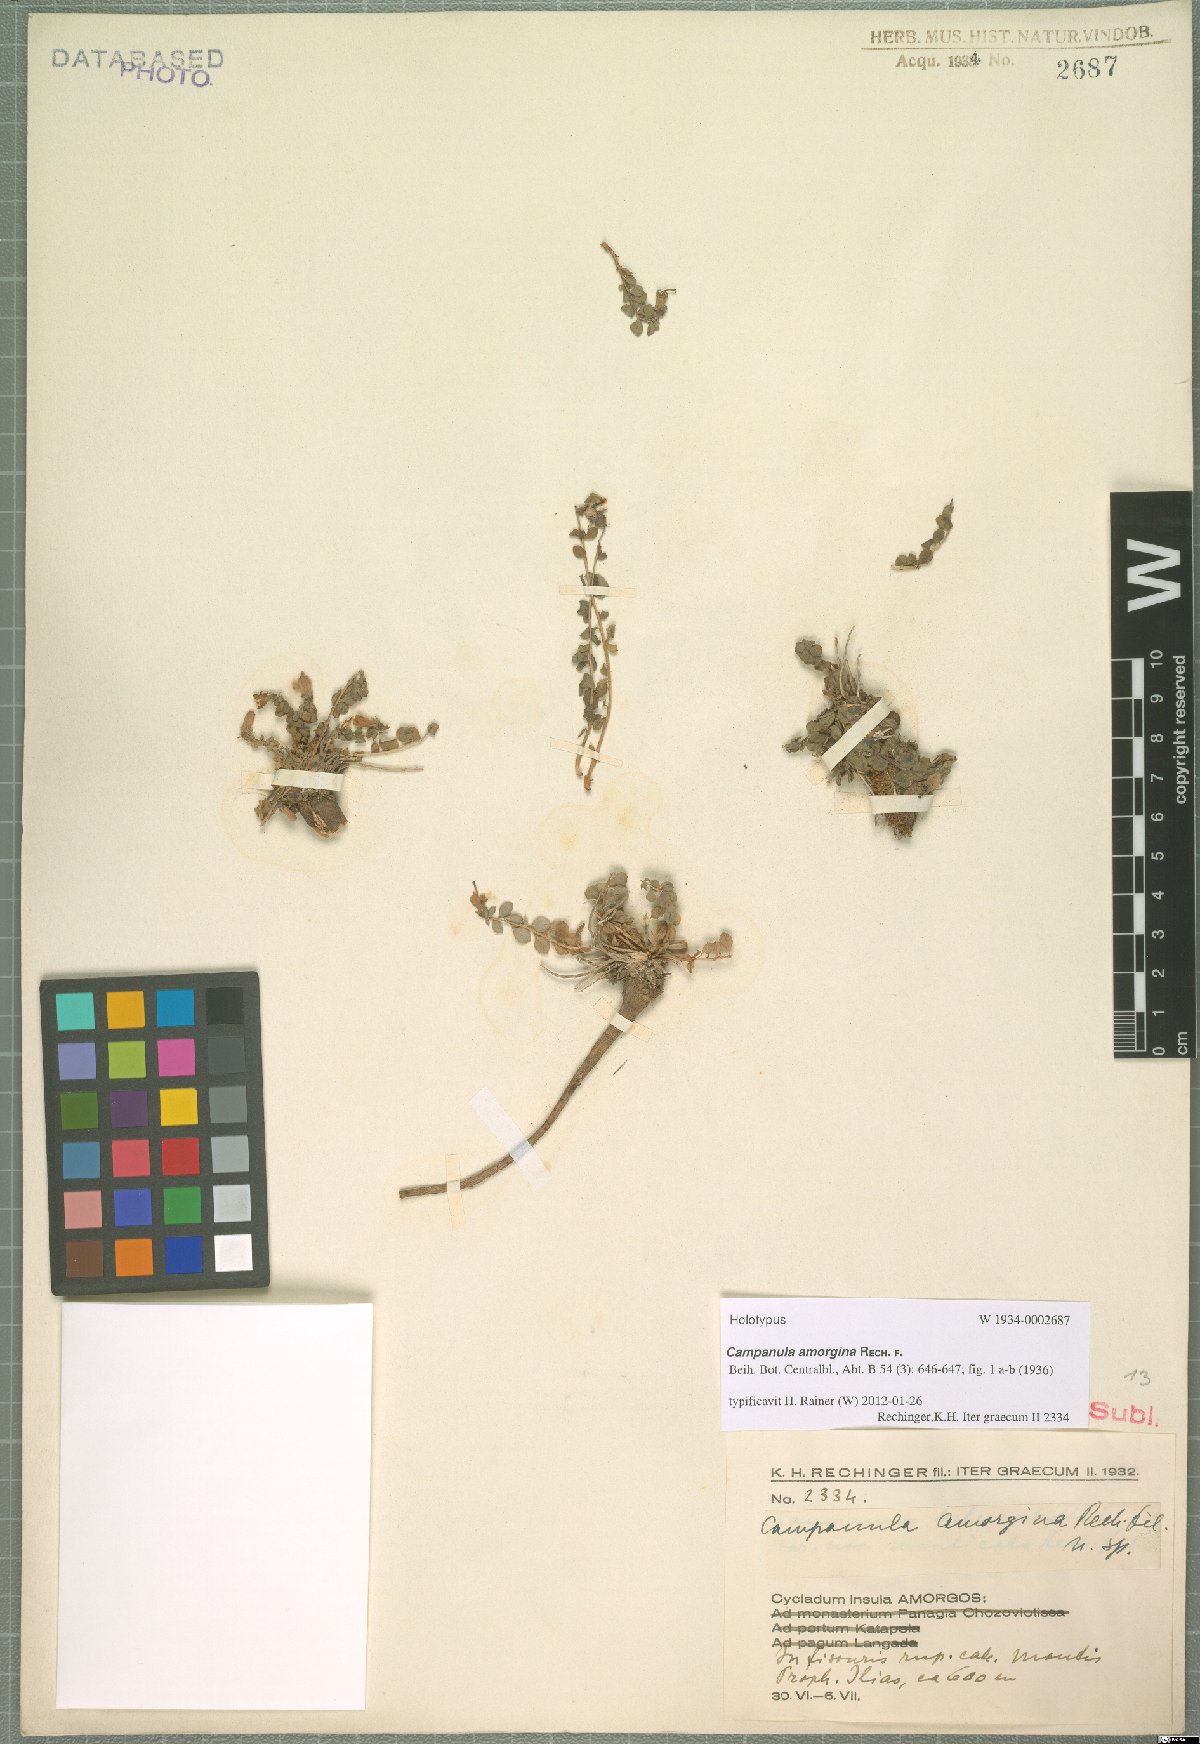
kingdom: Plantae
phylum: Tracheophyta
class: Magnoliopsida
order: Asterales
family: Campanulaceae
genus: Campanula
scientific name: Campanula heterophylla
